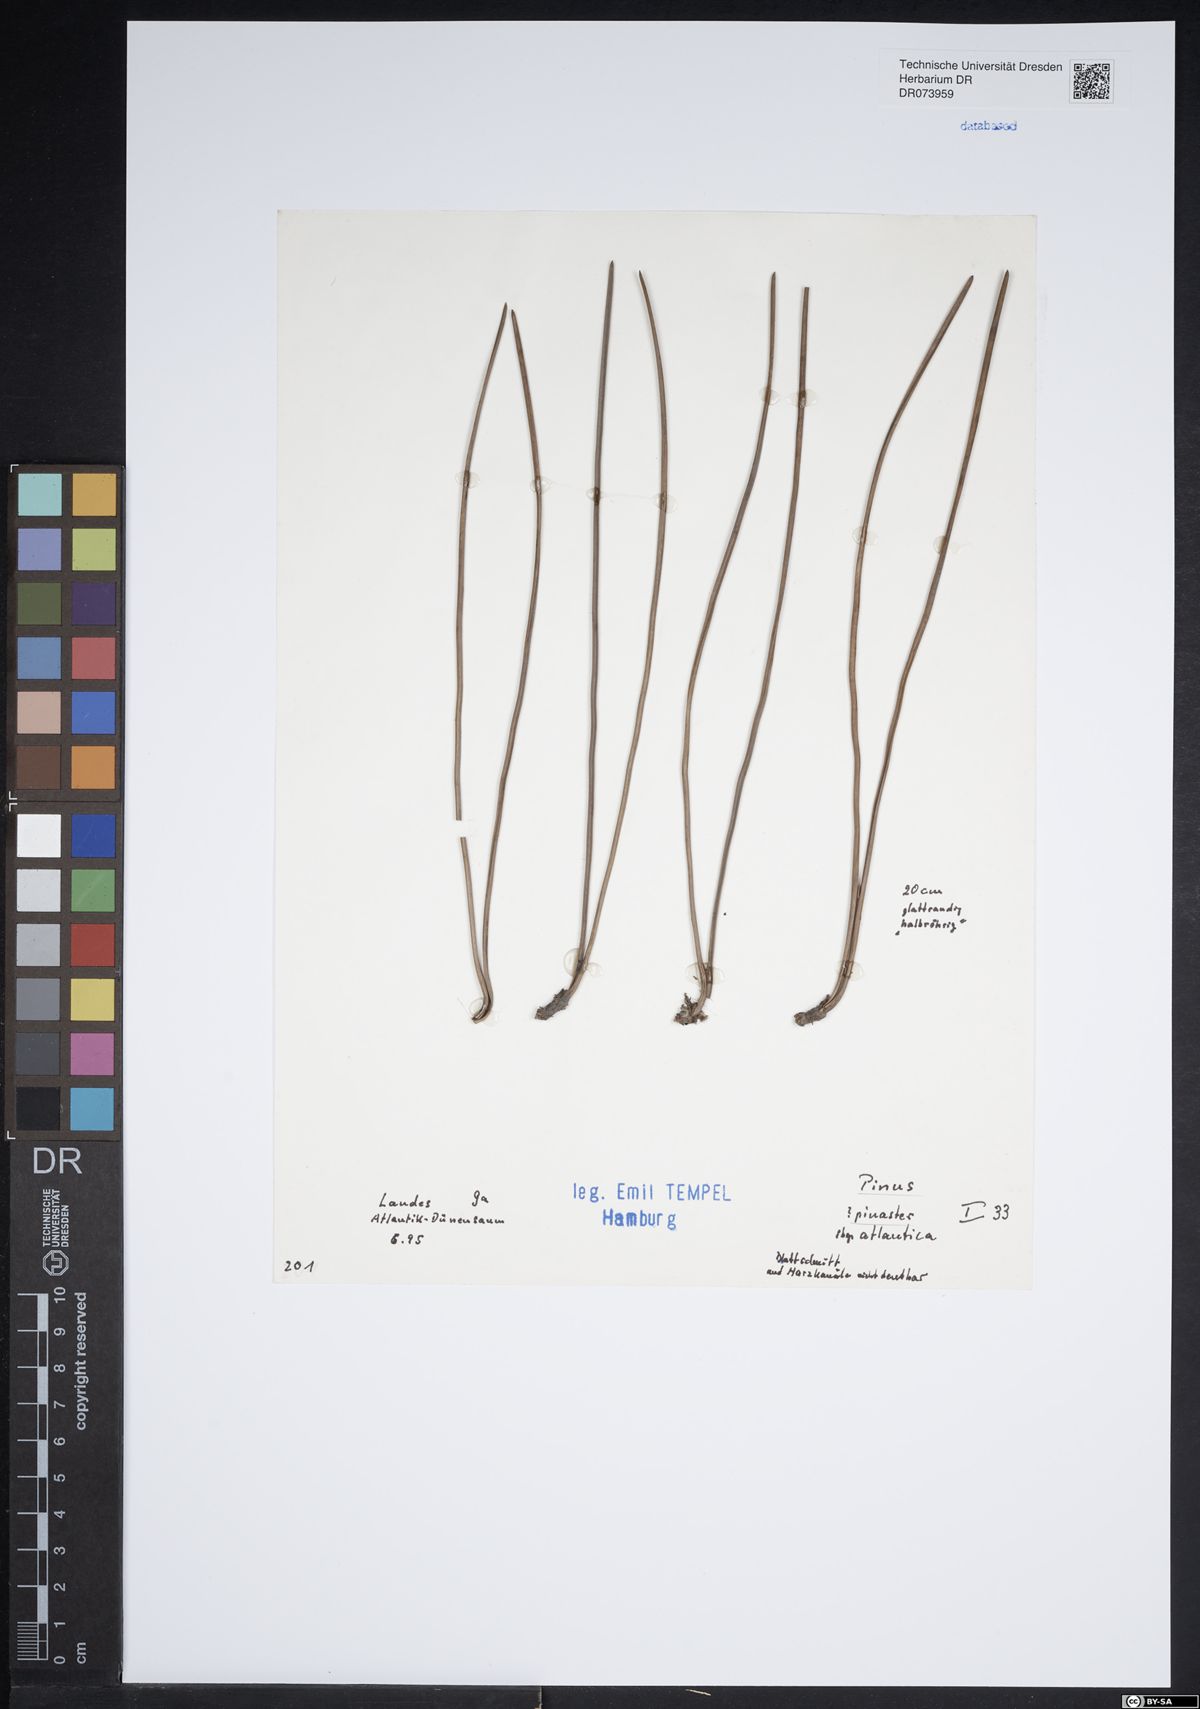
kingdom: Plantae
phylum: Tracheophyta
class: Pinopsida
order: Pinales
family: Pinaceae
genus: Pinus
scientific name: Pinus pinaster
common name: Maritime pine
